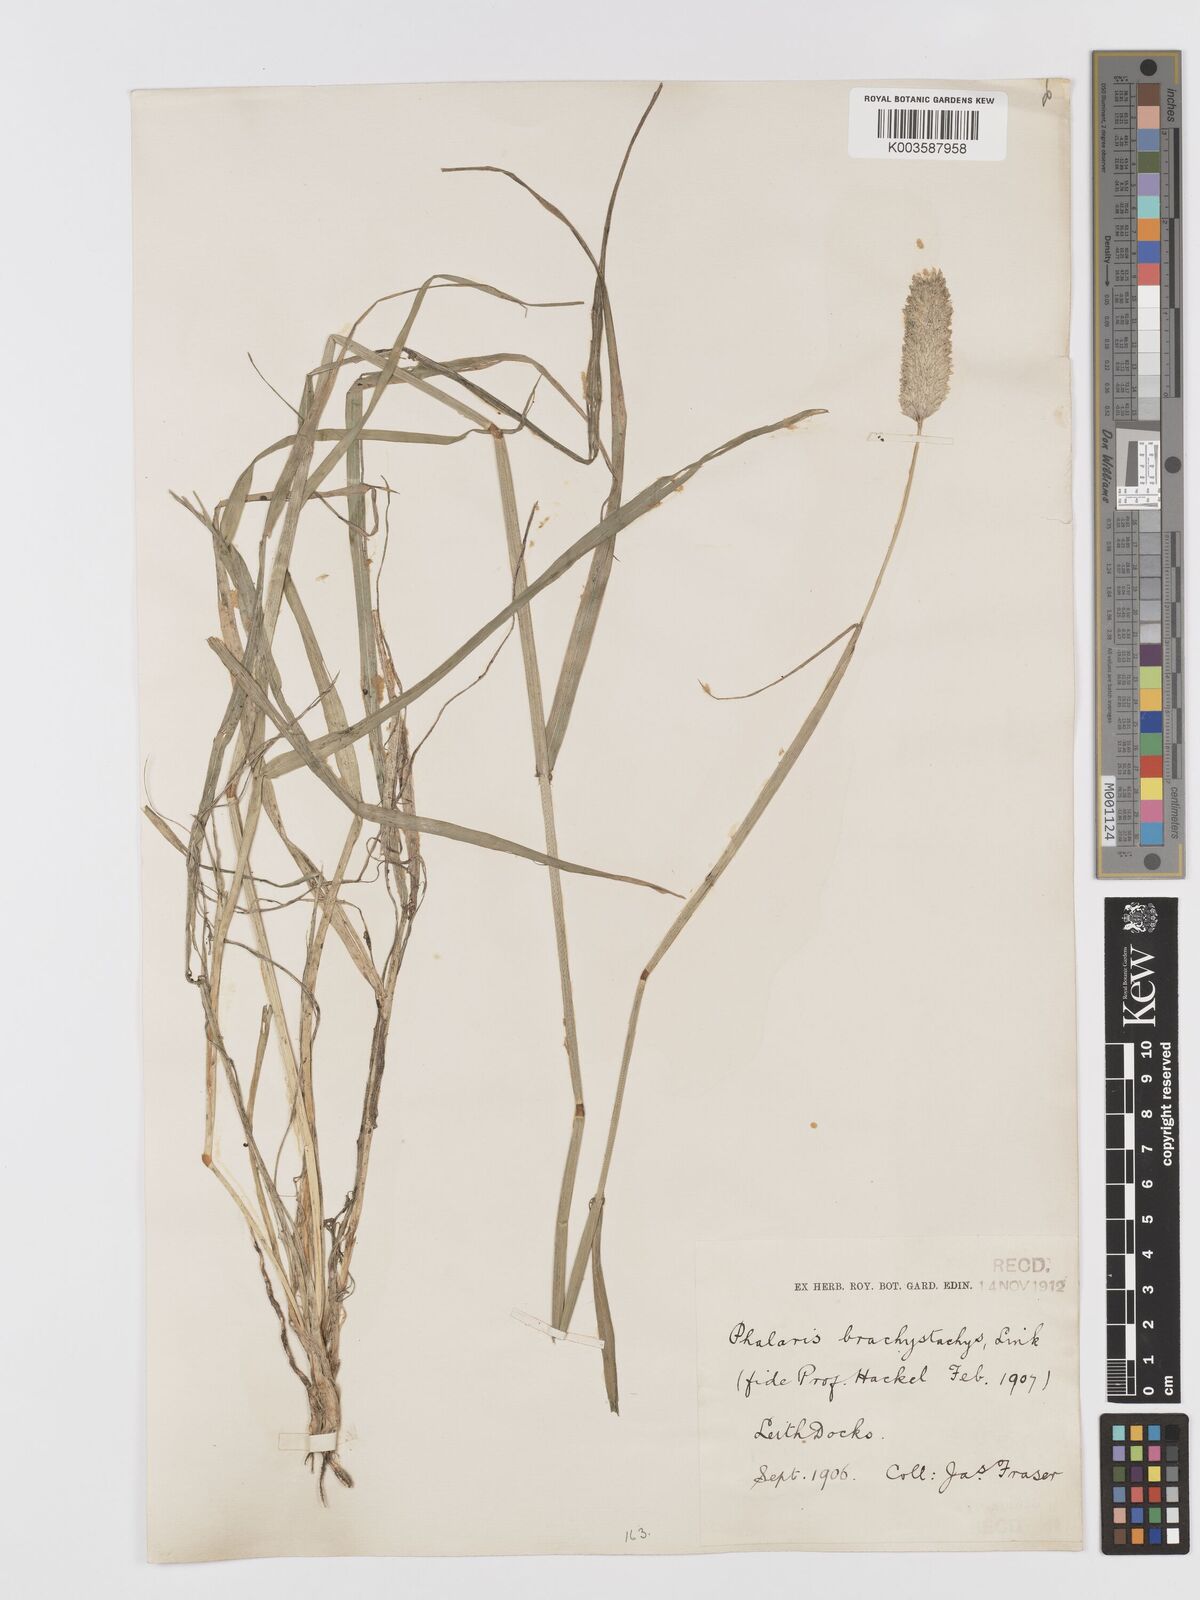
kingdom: Plantae
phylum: Tracheophyta
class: Liliopsida
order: Poales
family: Poaceae
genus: Phalaris
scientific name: Phalaris brachystachys
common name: Confused canary-grass
